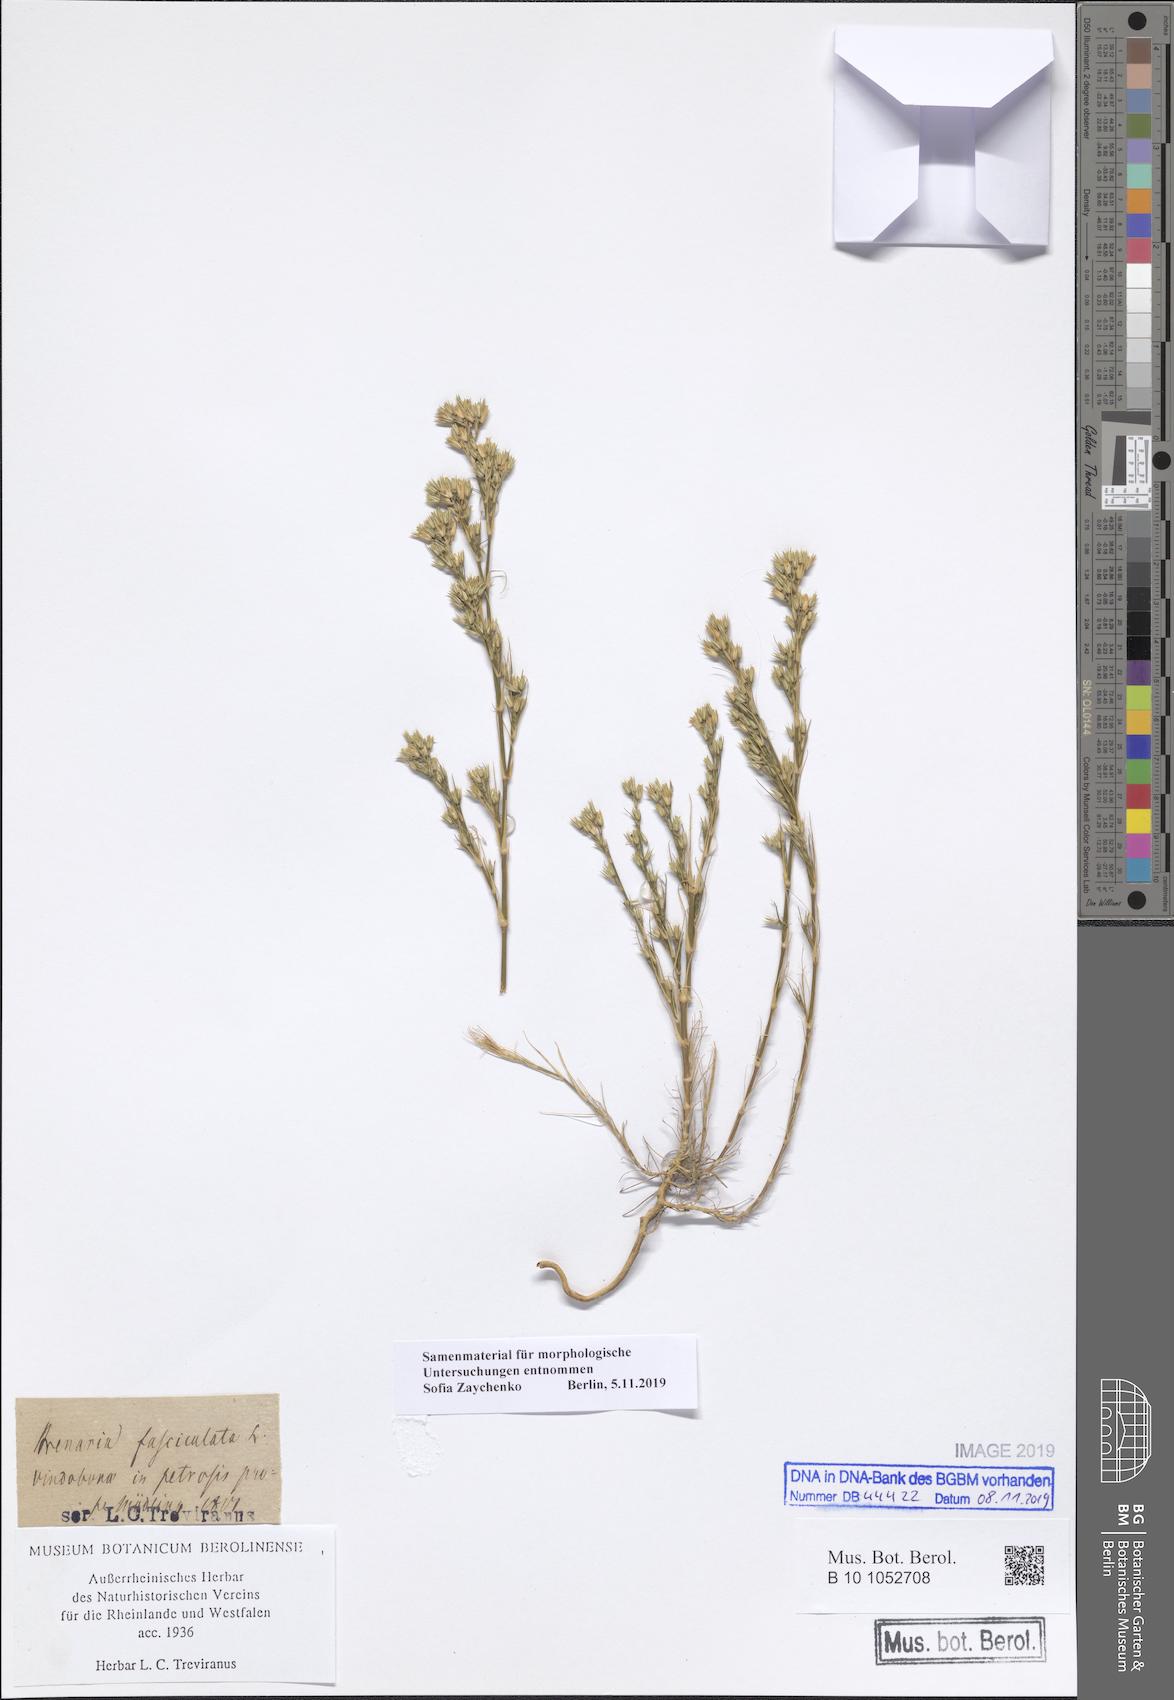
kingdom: Plantae
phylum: Tracheophyta
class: Magnoliopsida
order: Caryophyllales
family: Caryophyllaceae
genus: Minuartia
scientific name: Minuartia mucronata
